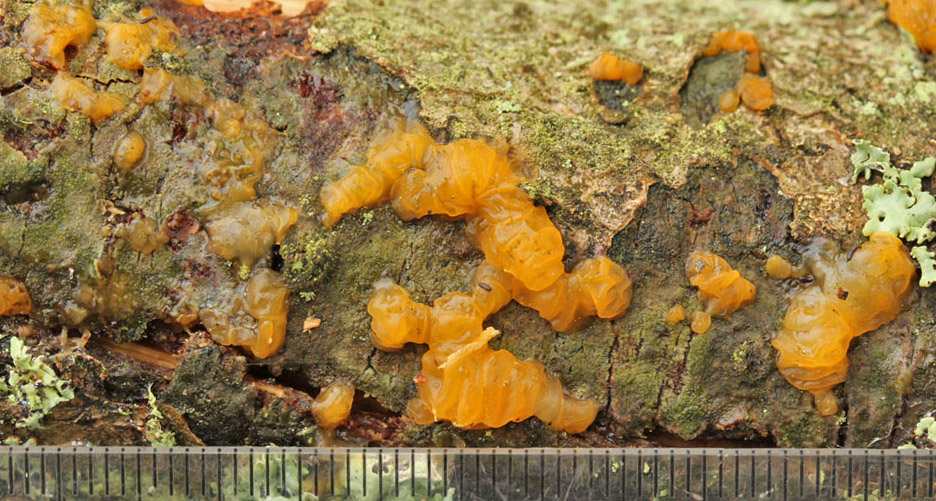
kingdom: Fungi
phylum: Basidiomycota
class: Dacrymycetes
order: Dacrymycetales
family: Dacrymycetaceae
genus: Dacrymyces
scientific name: Dacrymyces
